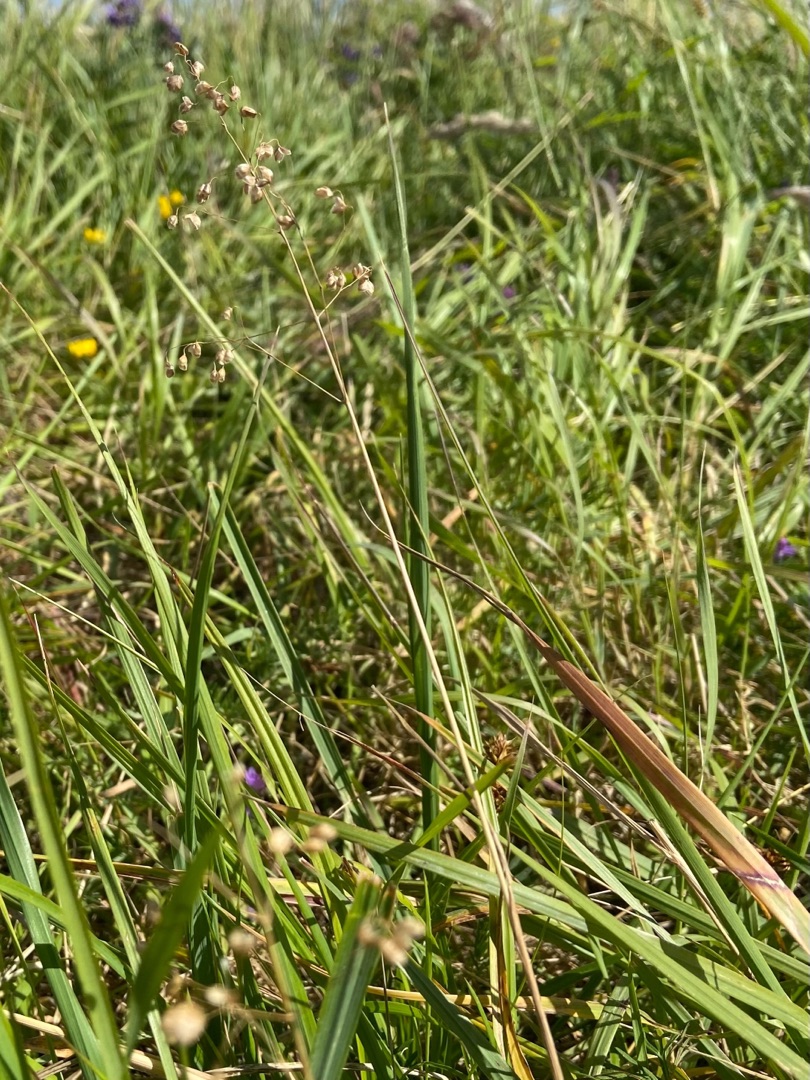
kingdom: Plantae
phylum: Tracheophyta
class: Liliopsida
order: Poales
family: Poaceae
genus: Briza
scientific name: Briza media
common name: Hjertegræs
